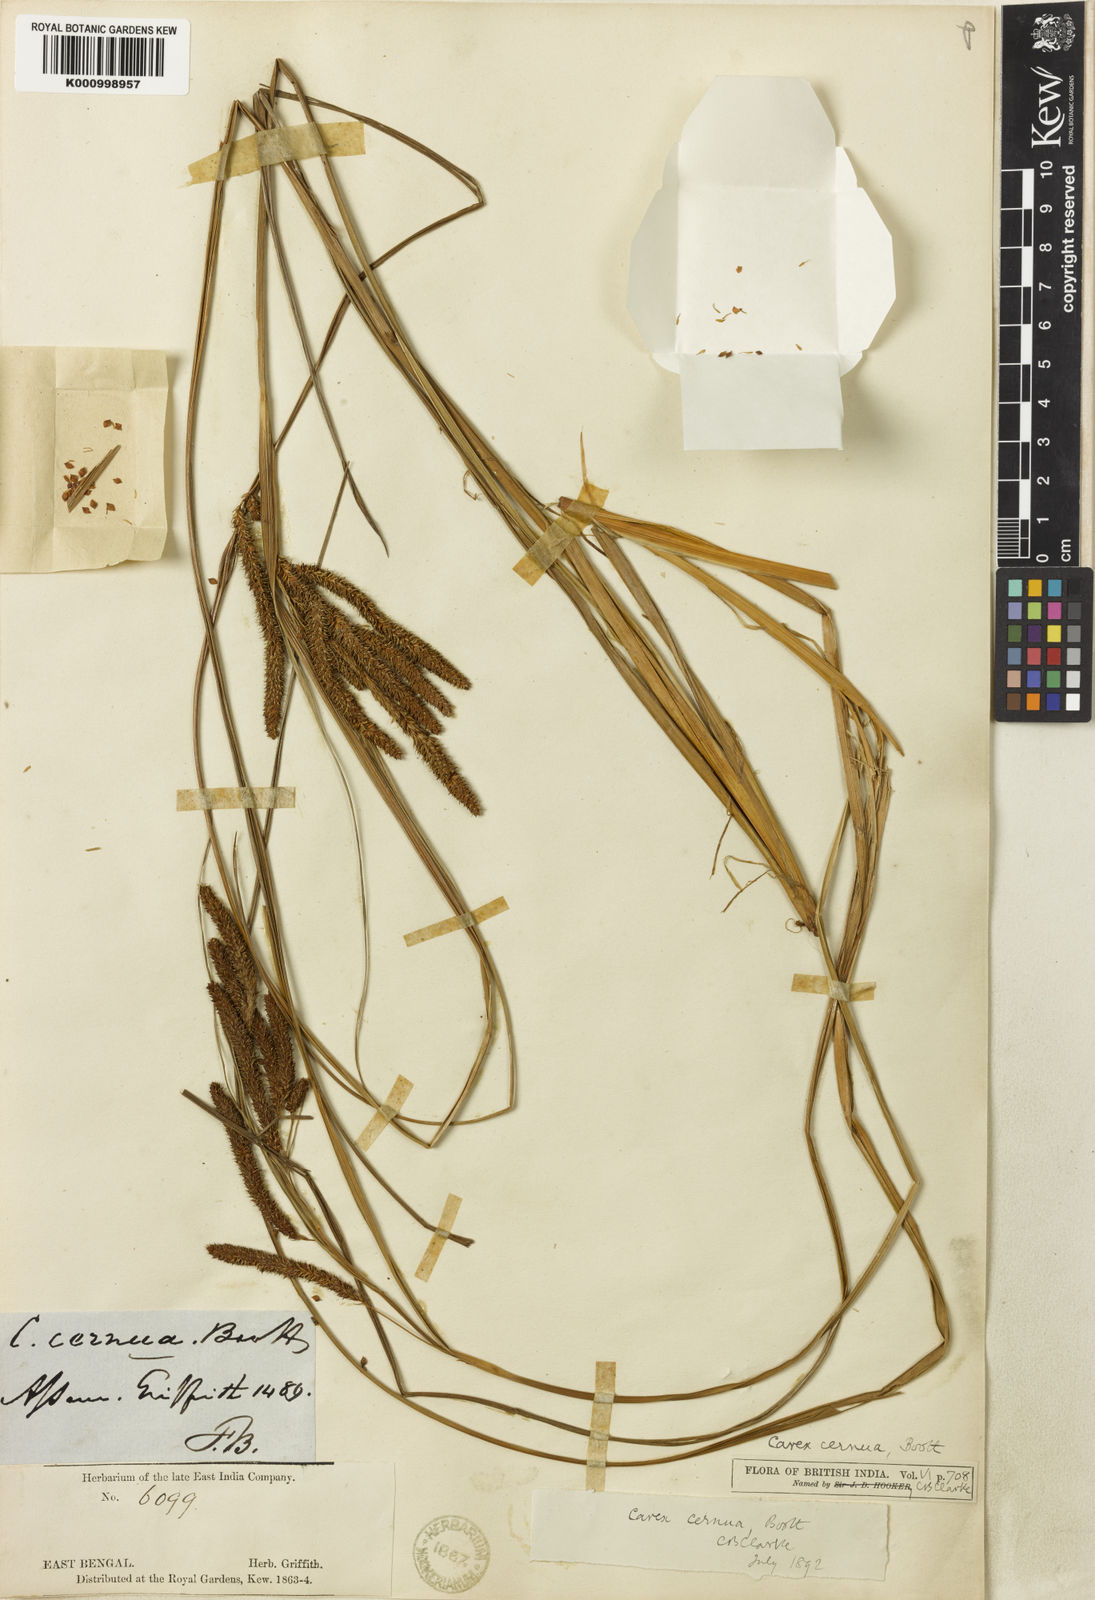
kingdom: Plantae
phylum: Tracheophyta
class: Liliopsida
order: Poales
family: Cyperaceae
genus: Carex
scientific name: Carex
